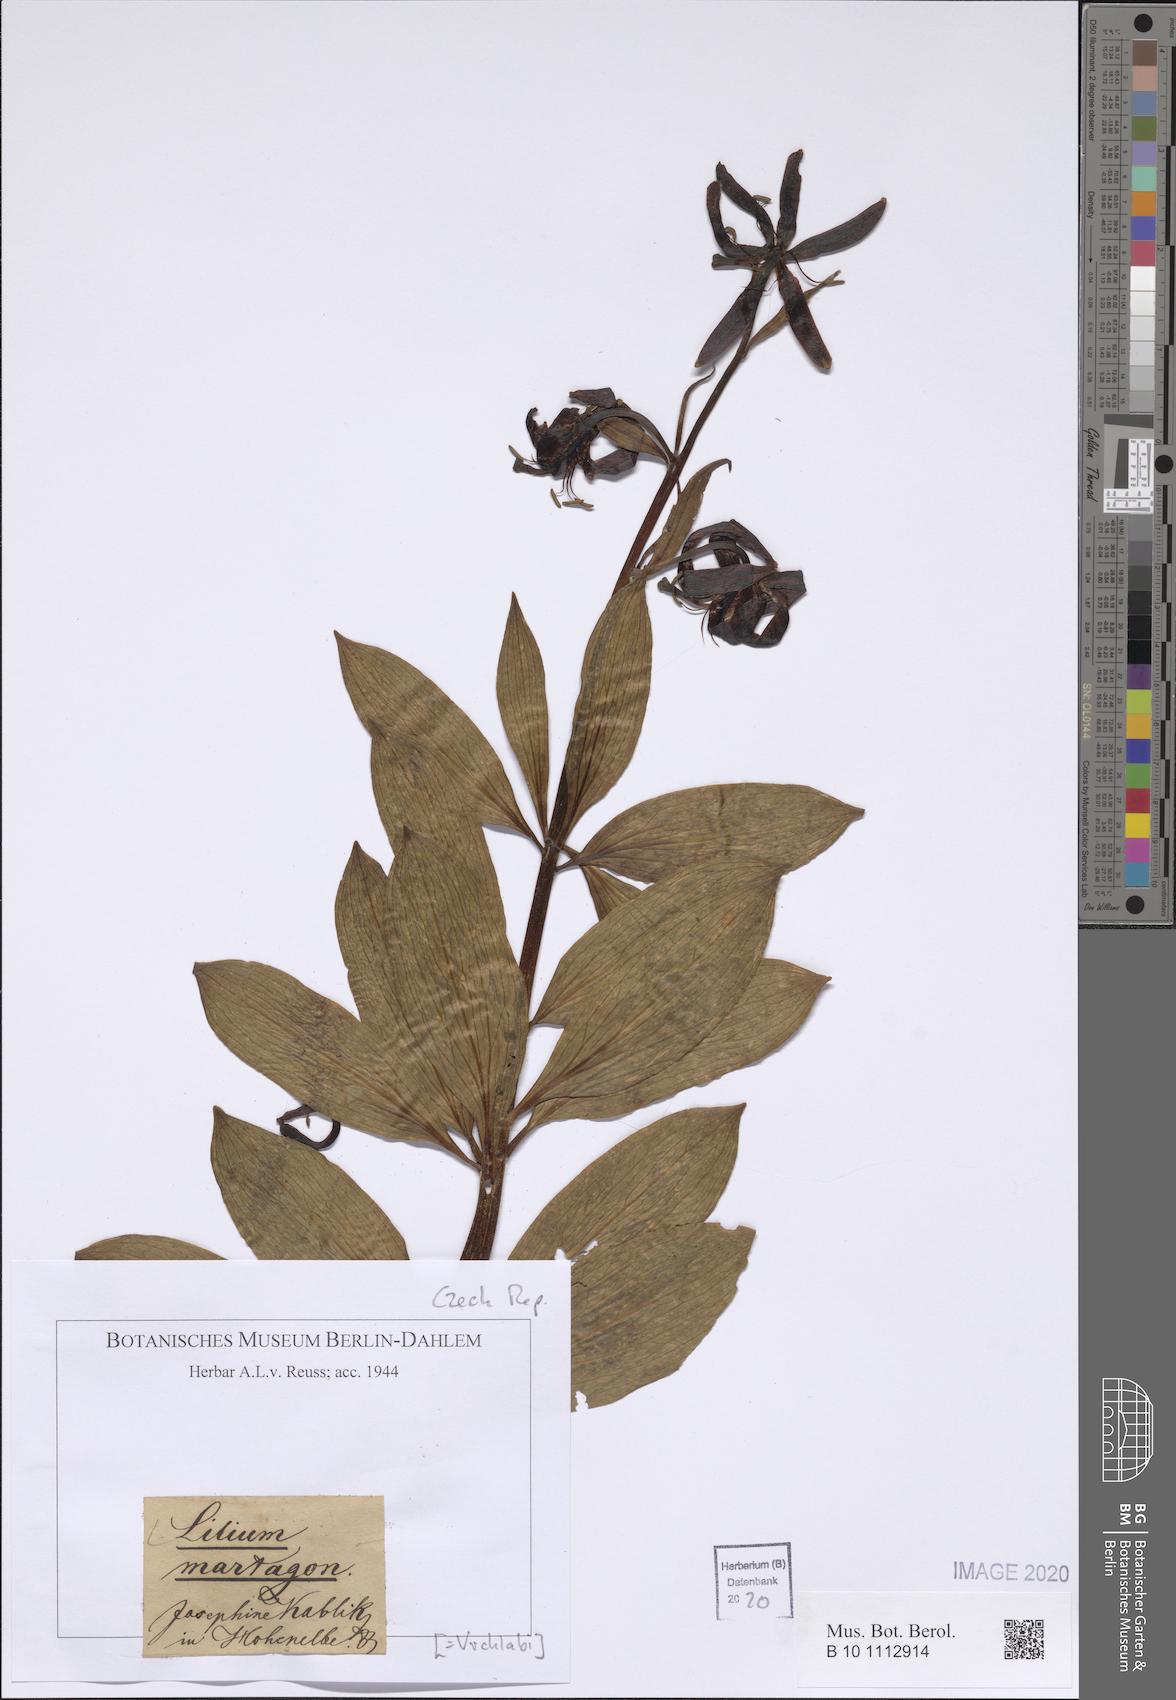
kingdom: Plantae
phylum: Tracheophyta
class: Liliopsida
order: Liliales
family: Liliaceae
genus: Lilium
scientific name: Lilium martagon
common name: Martagon lily
